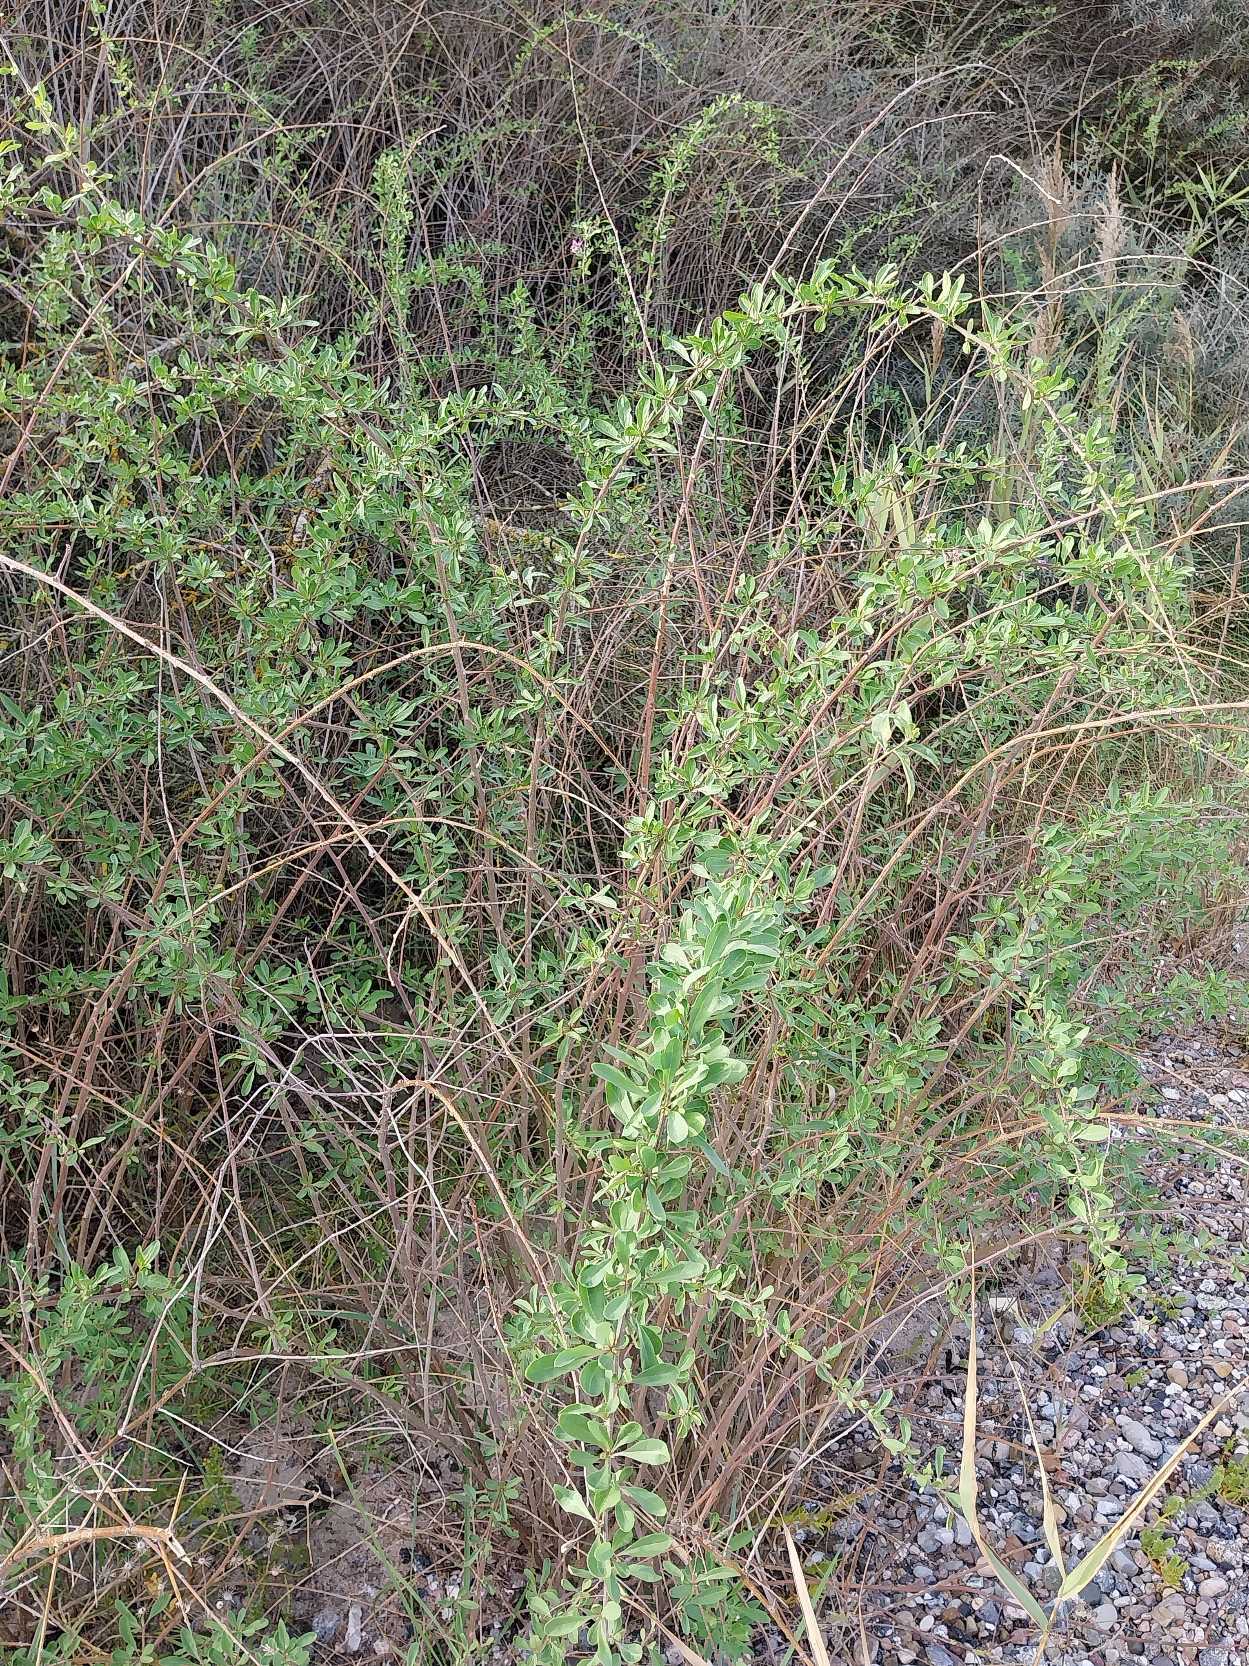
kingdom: Plantae
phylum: Tracheophyta
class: Magnoliopsida
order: Solanales
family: Solanaceae
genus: Lycium
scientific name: Lycium barbarum
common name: Bukketorn
